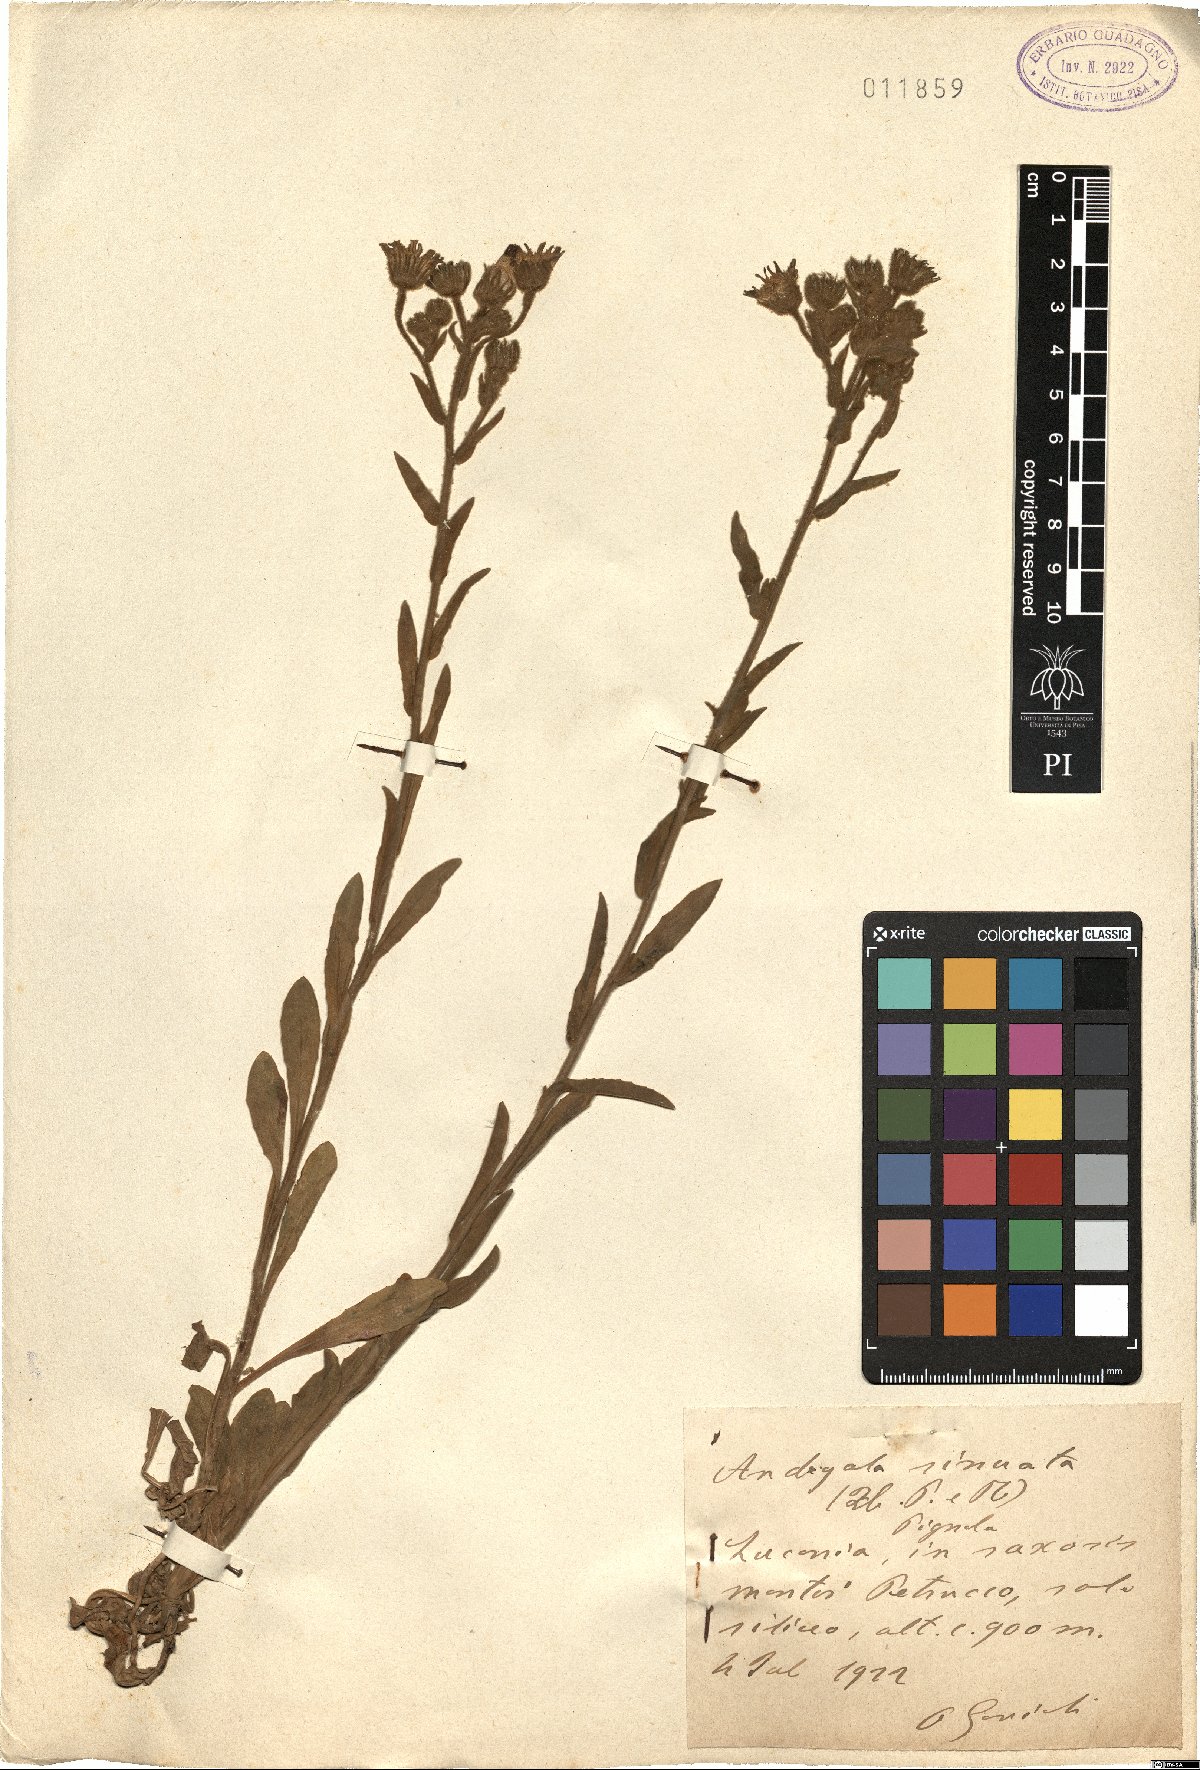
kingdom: Plantae
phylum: Tracheophyta
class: Magnoliopsida
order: Asterales
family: Asteraceae
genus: Andryala
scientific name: Andryala integrifolia
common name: Common andryala
